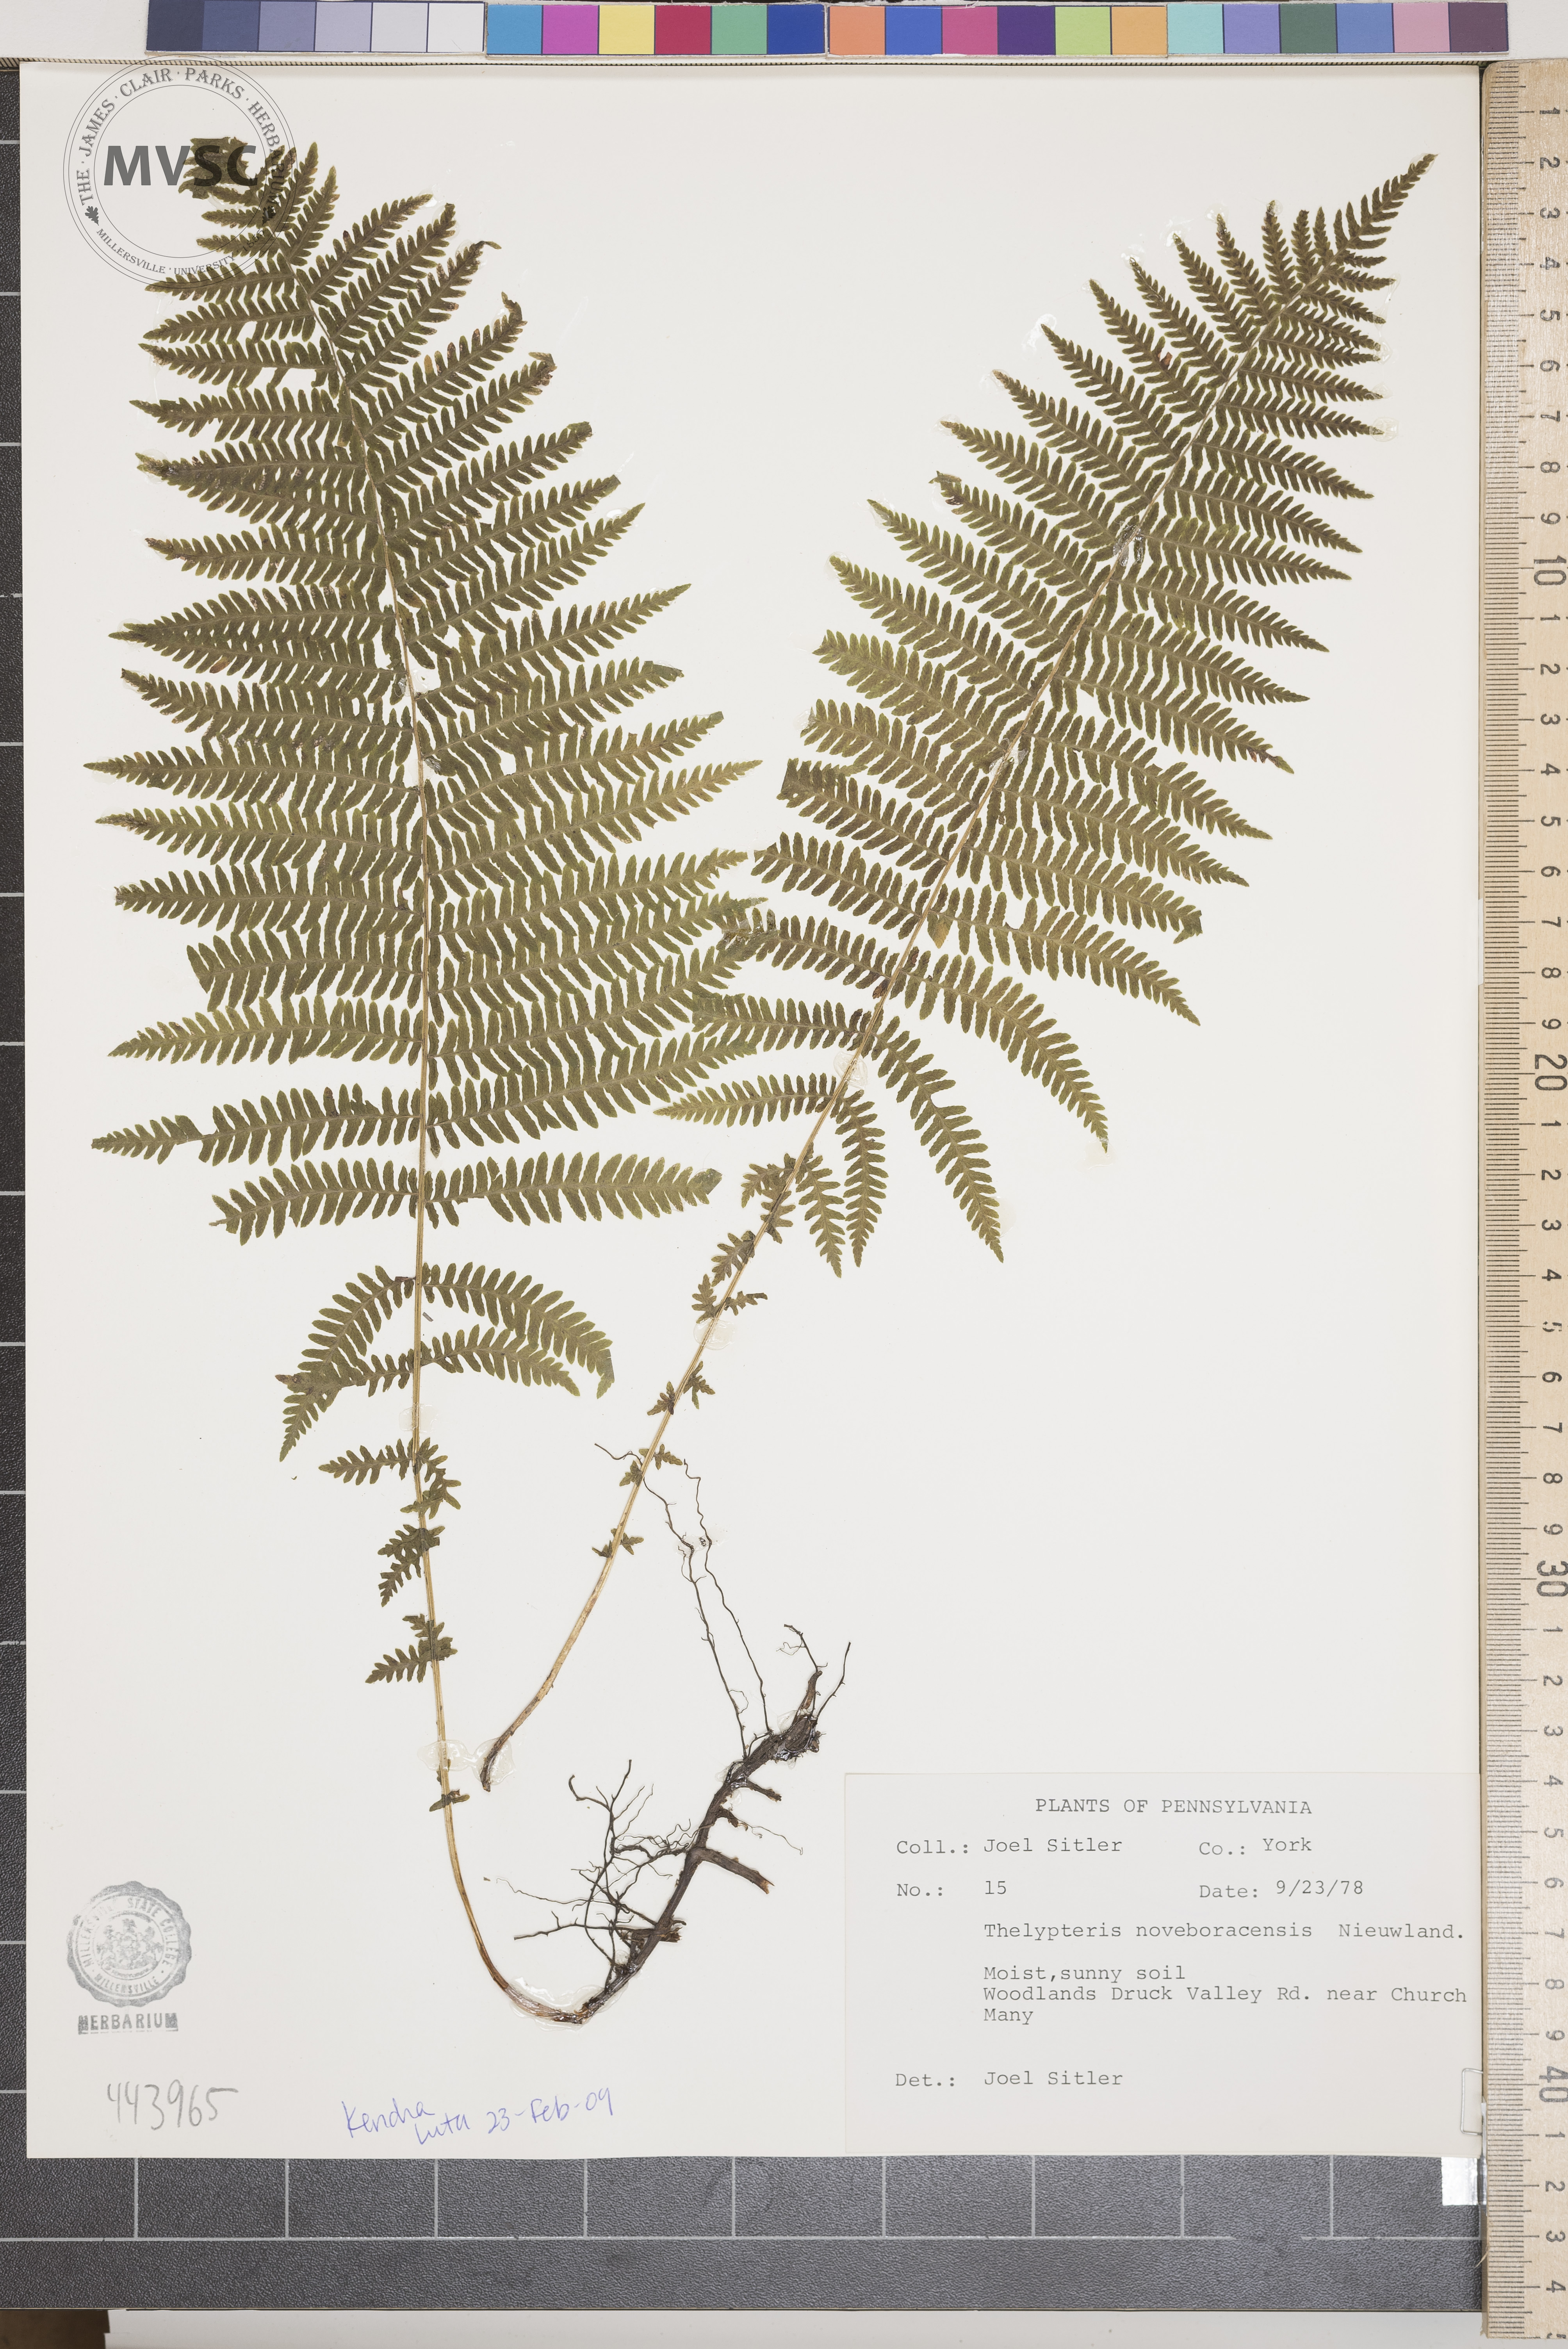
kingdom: Plantae
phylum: Tracheophyta
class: Polypodiopsida
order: Polypodiales
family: Thelypteridaceae
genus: Amauropelta
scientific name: Amauropelta noveboracensis
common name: New york fern
